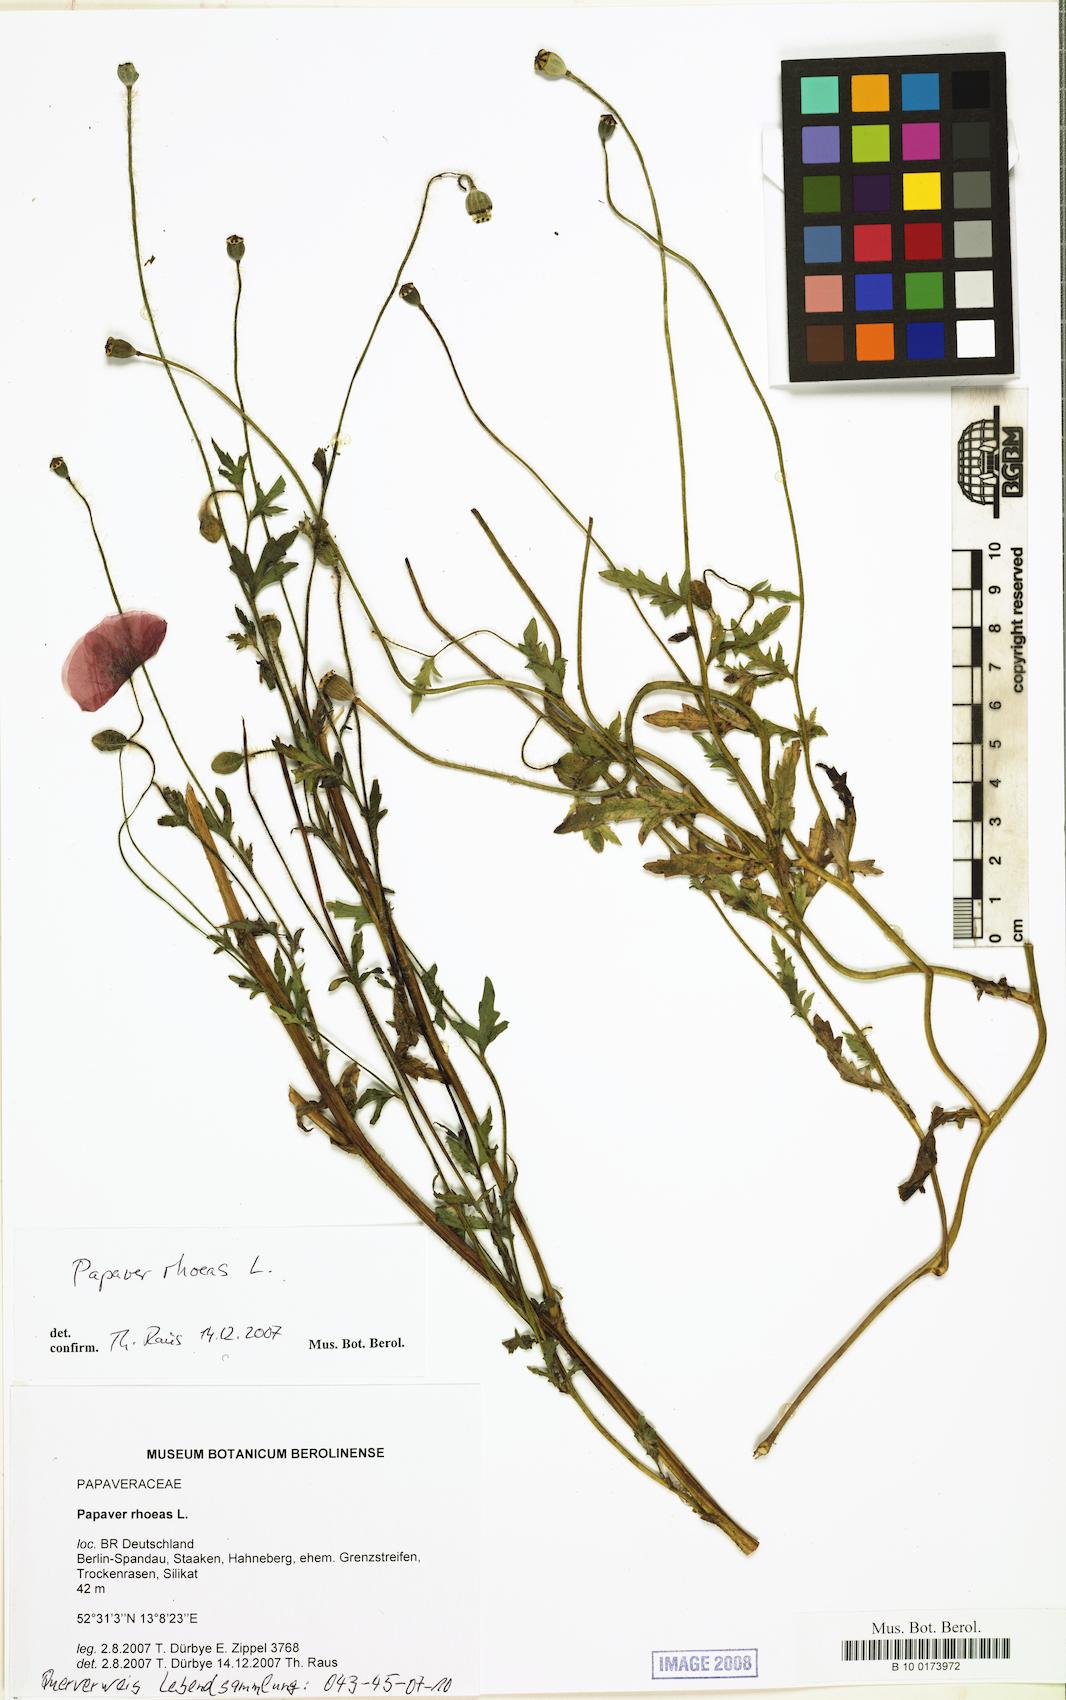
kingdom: Plantae
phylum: Tracheophyta
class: Magnoliopsida
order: Ranunculales
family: Papaveraceae
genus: Papaver
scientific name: Papaver rhoeas
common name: Corn poppy
